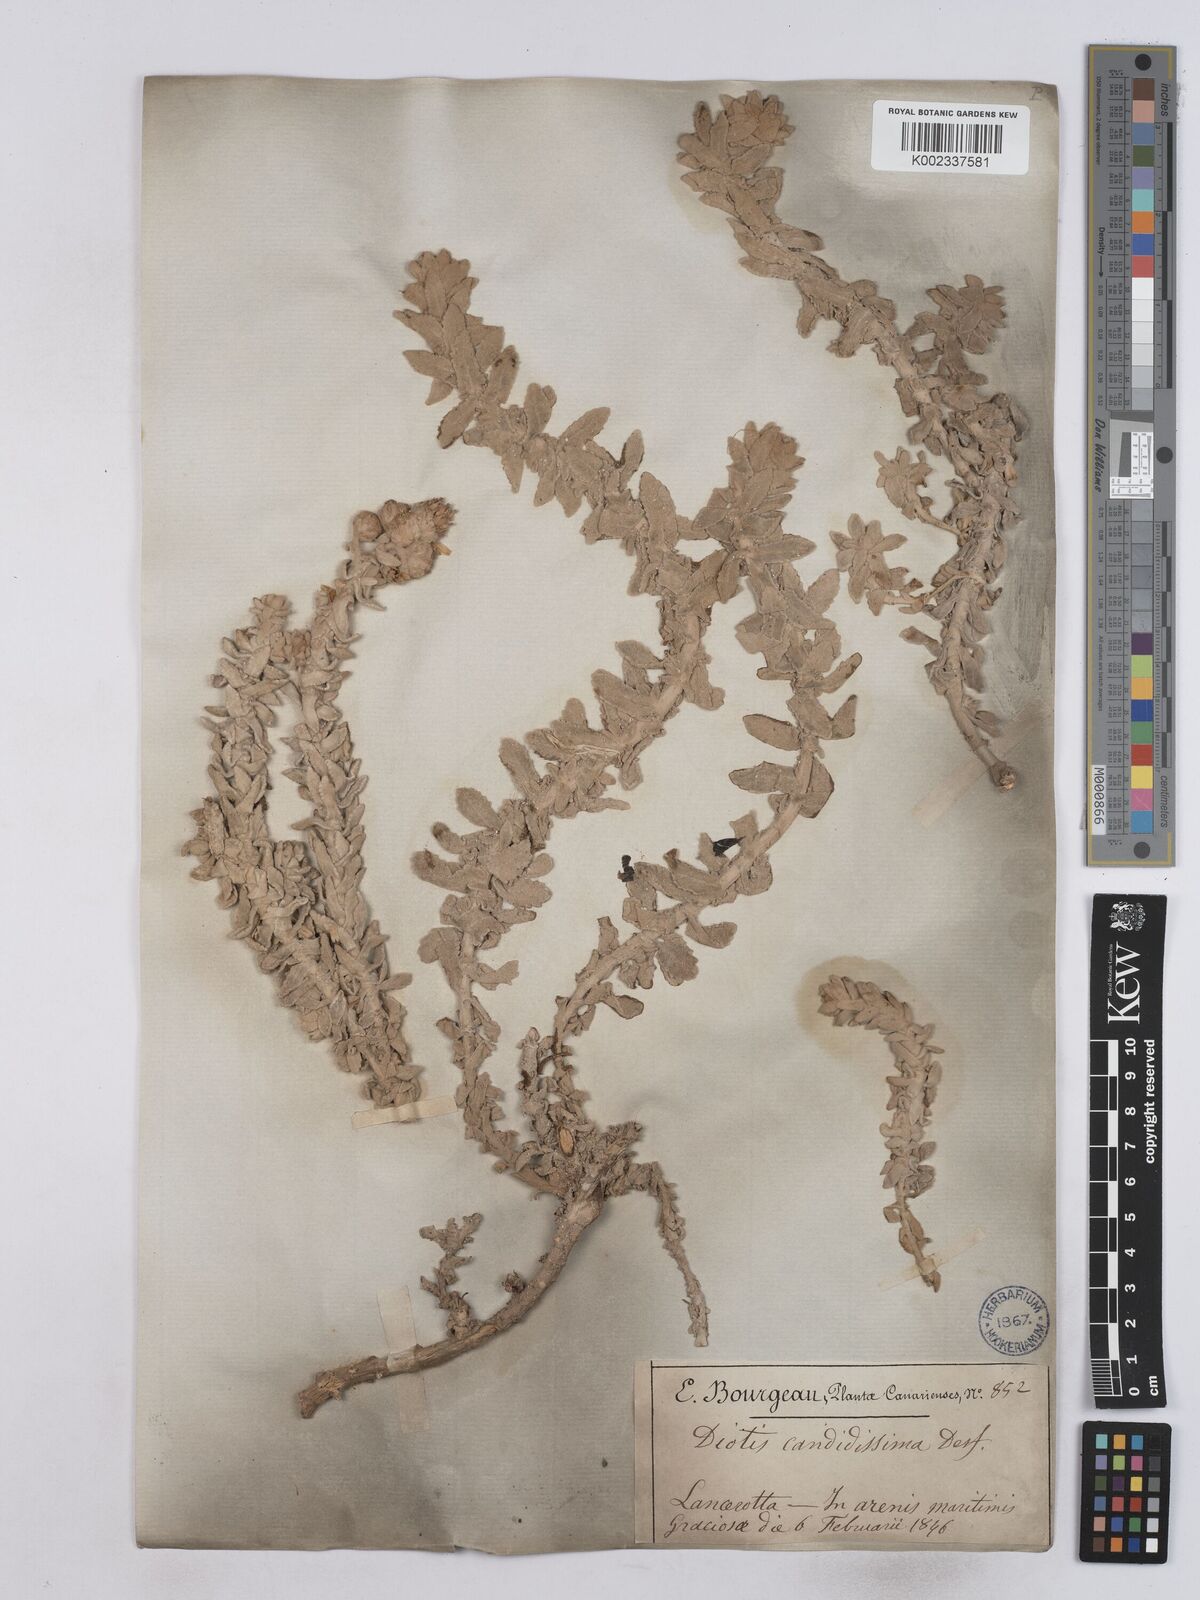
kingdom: Plantae
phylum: Tracheophyta
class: Magnoliopsida
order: Asterales
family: Asteraceae
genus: Achillea
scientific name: Achillea
